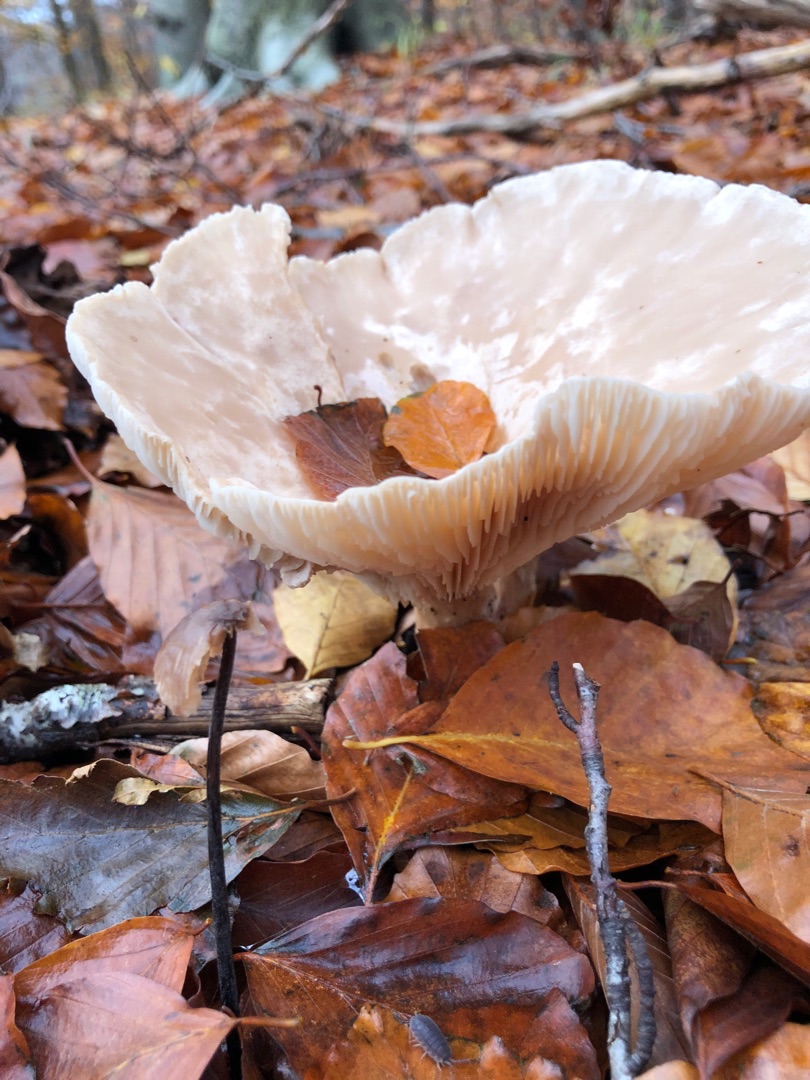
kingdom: Fungi
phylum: Basidiomycota
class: Agaricomycetes
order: Agaricales
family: Tricholomataceae
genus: Clitocybe
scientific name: Clitocybe nebularis
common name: Tåge-tragthat
